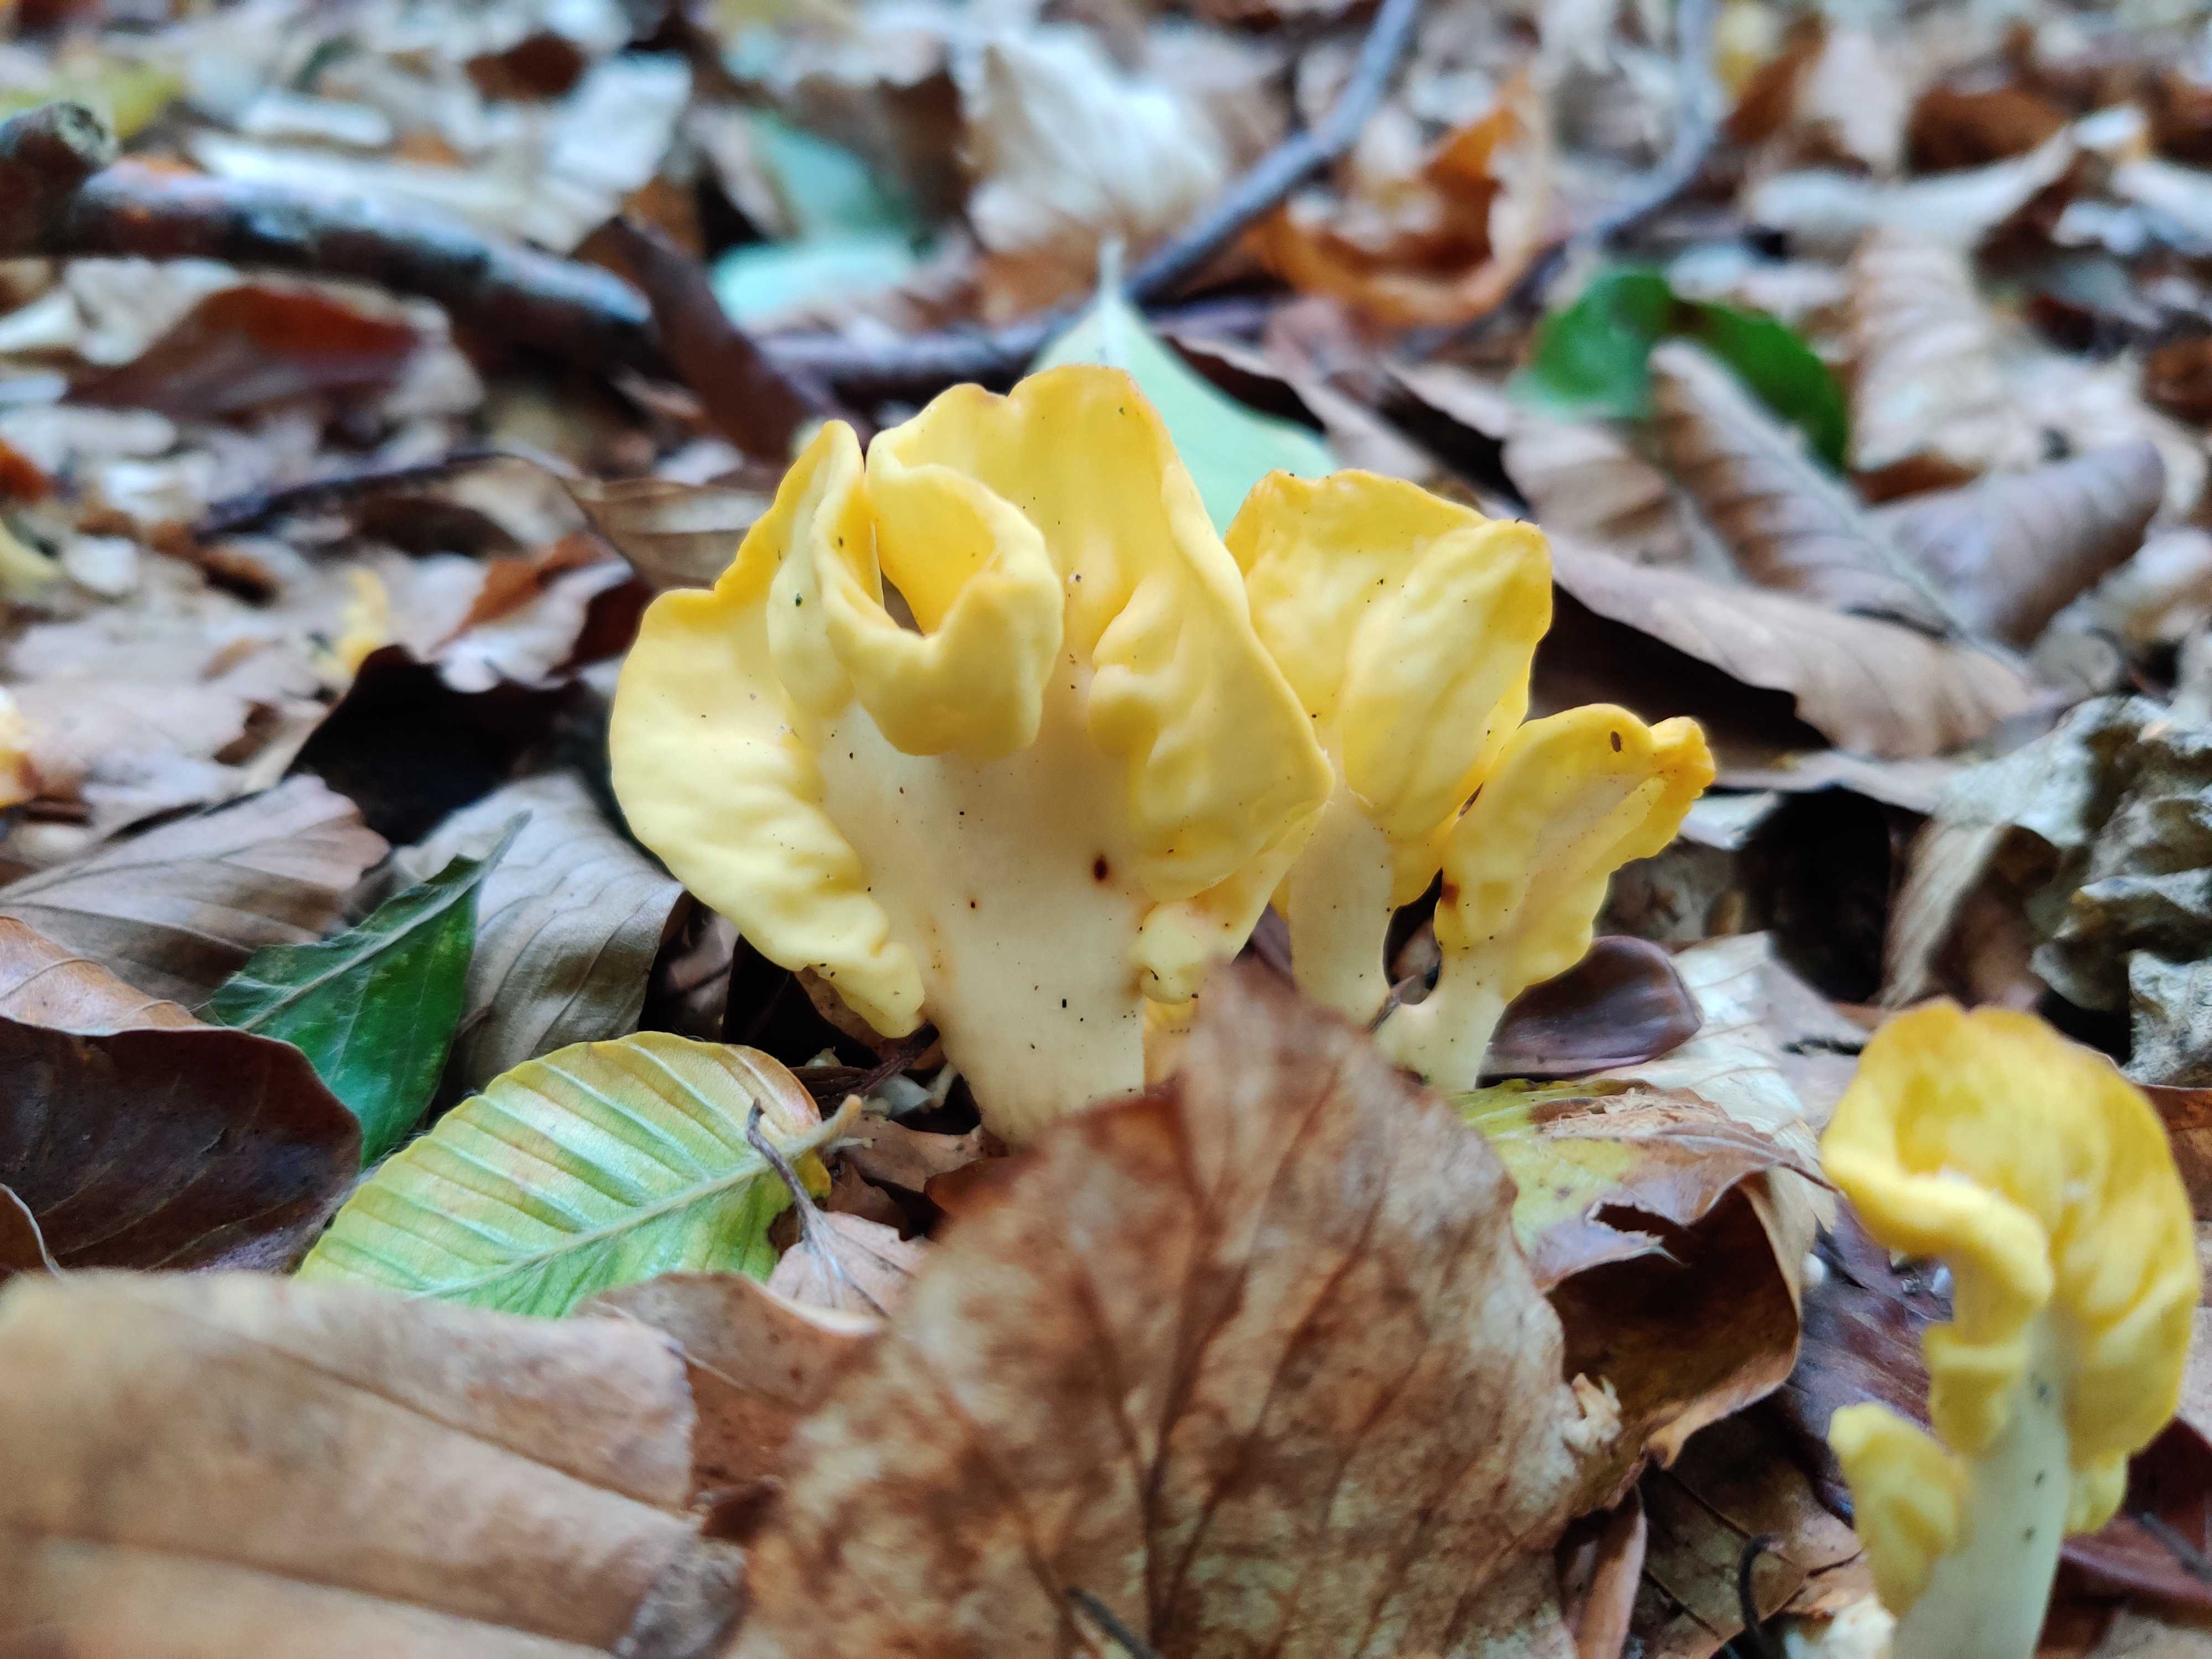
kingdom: Fungi
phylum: Ascomycota
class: Leotiomycetes
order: Rhytismatales
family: Cudoniaceae
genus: Spathularia
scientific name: Spathularia flavida
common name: gul spatelsvamp
